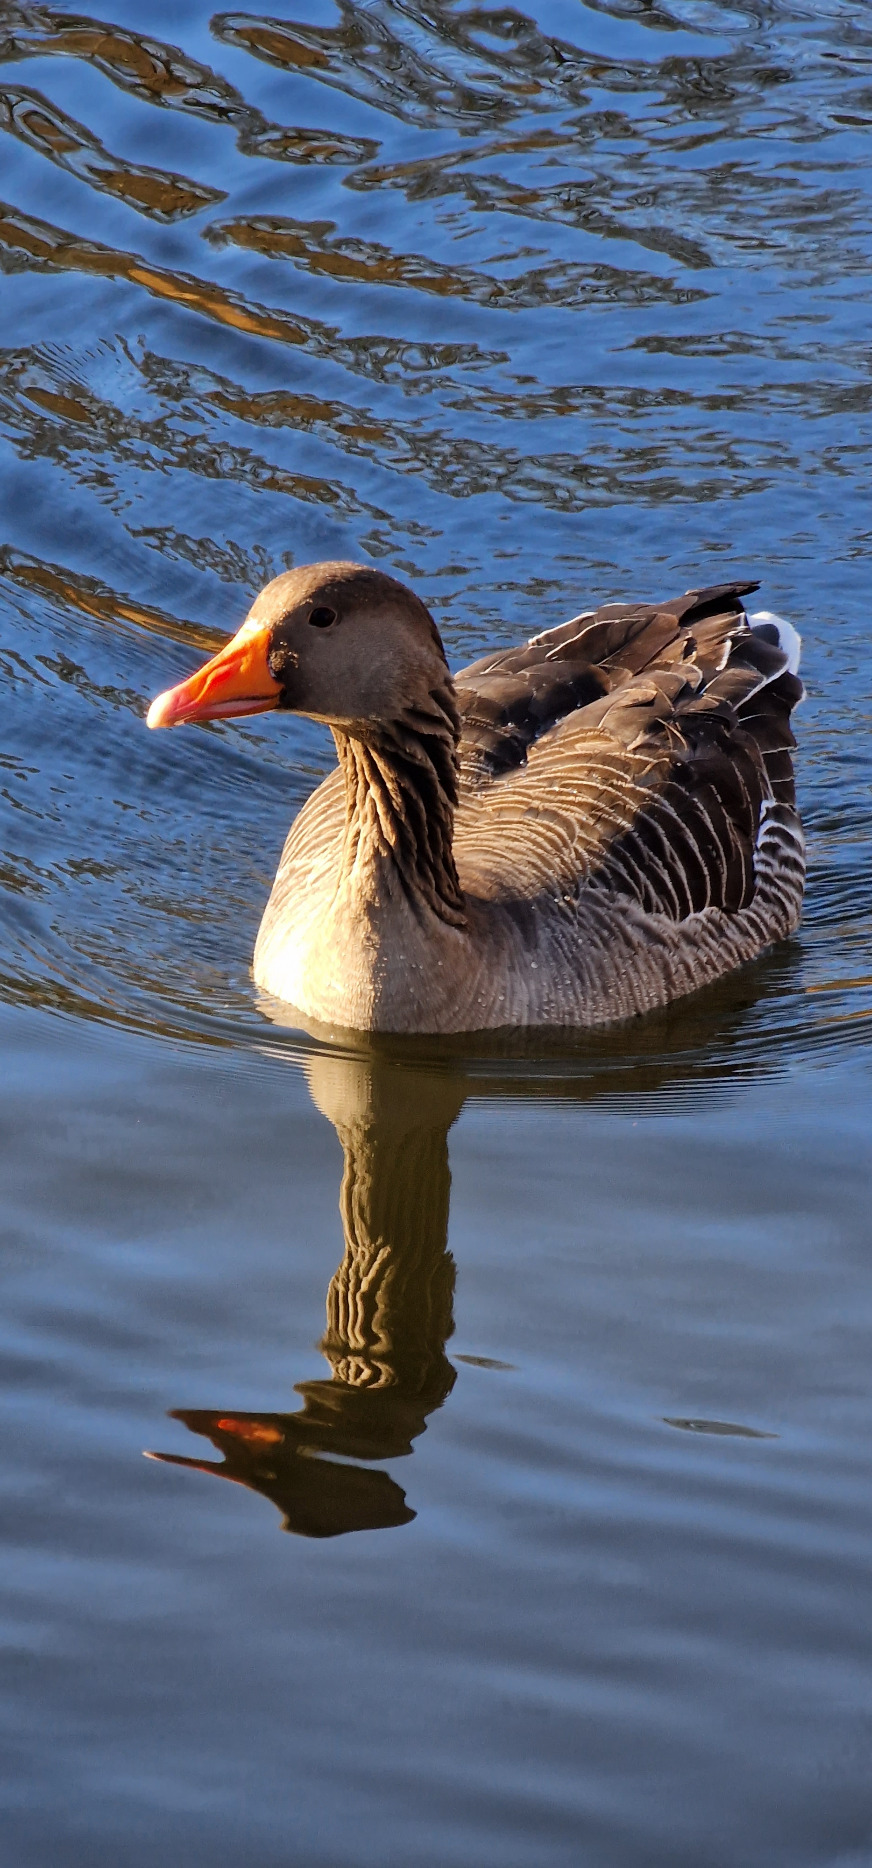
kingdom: Animalia
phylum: Chordata
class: Aves
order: Anseriformes
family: Anatidae
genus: Anser
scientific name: Anser anser
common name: Grågås
